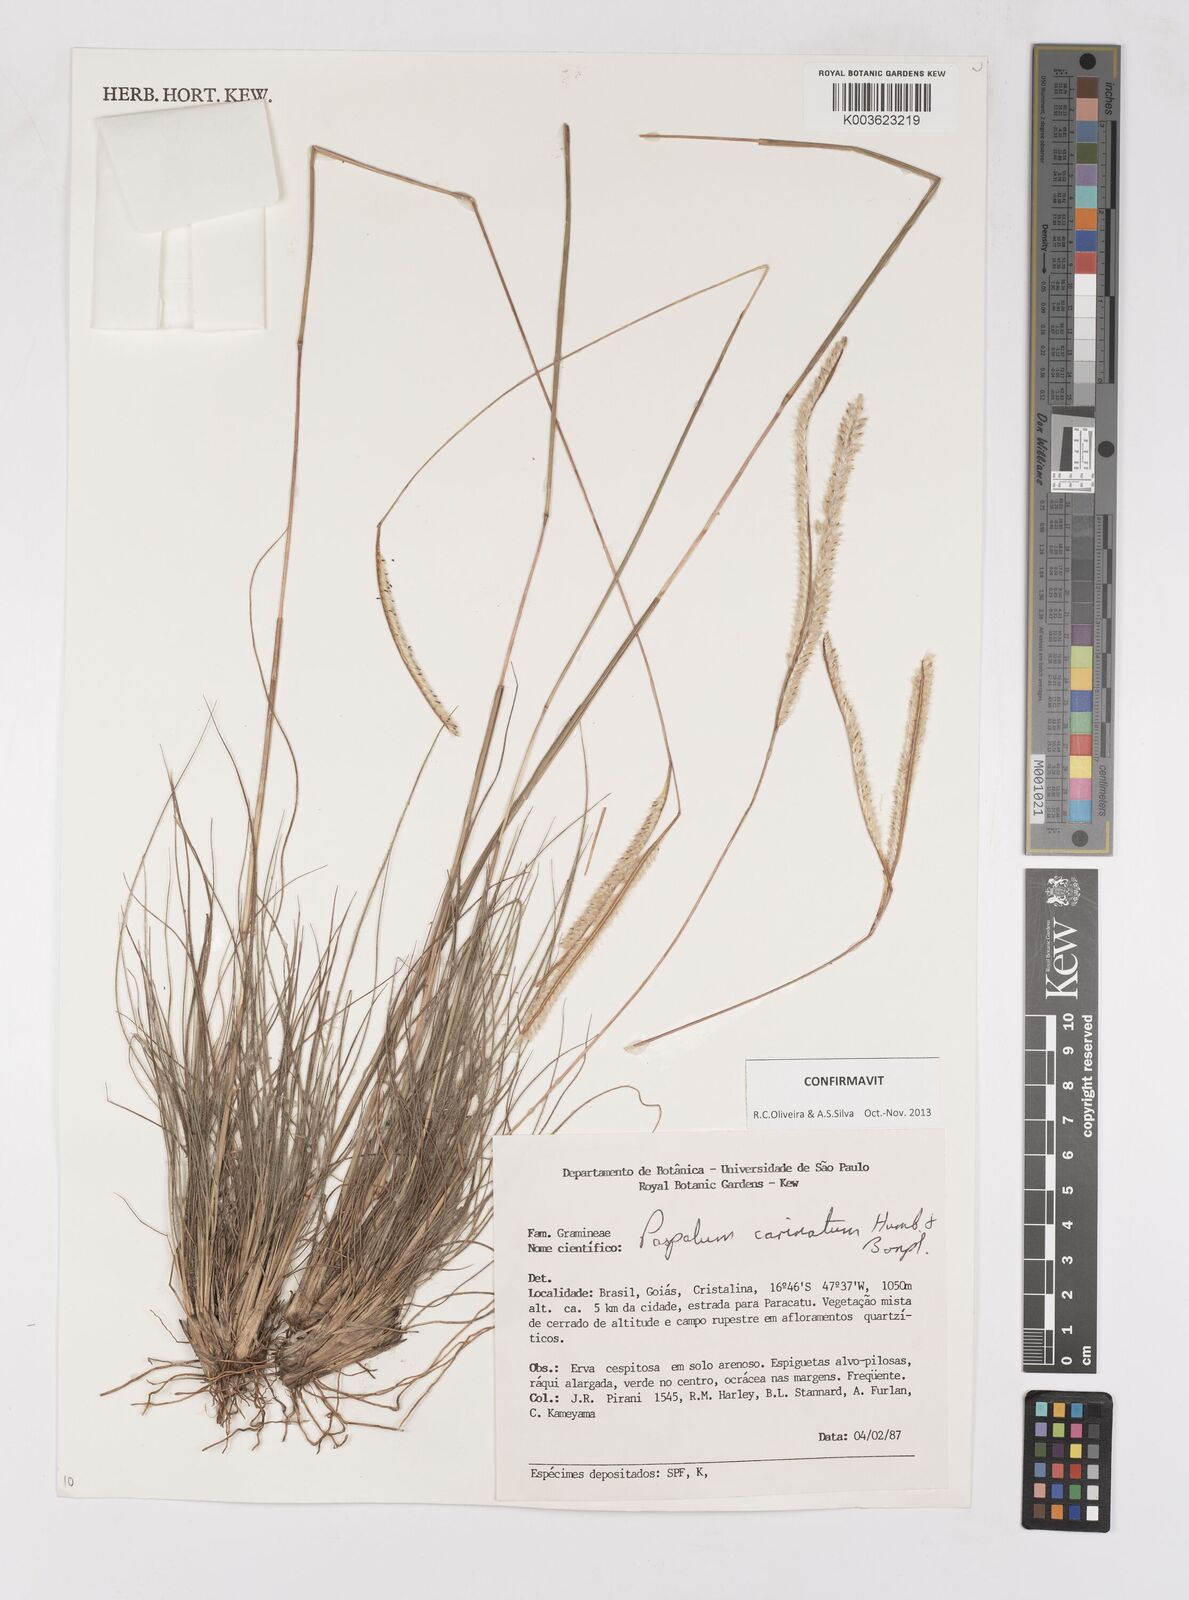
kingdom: Plantae
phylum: Tracheophyta
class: Liliopsida
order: Poales
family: Poaceae
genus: Paspalum
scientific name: Paspalum carinatum
